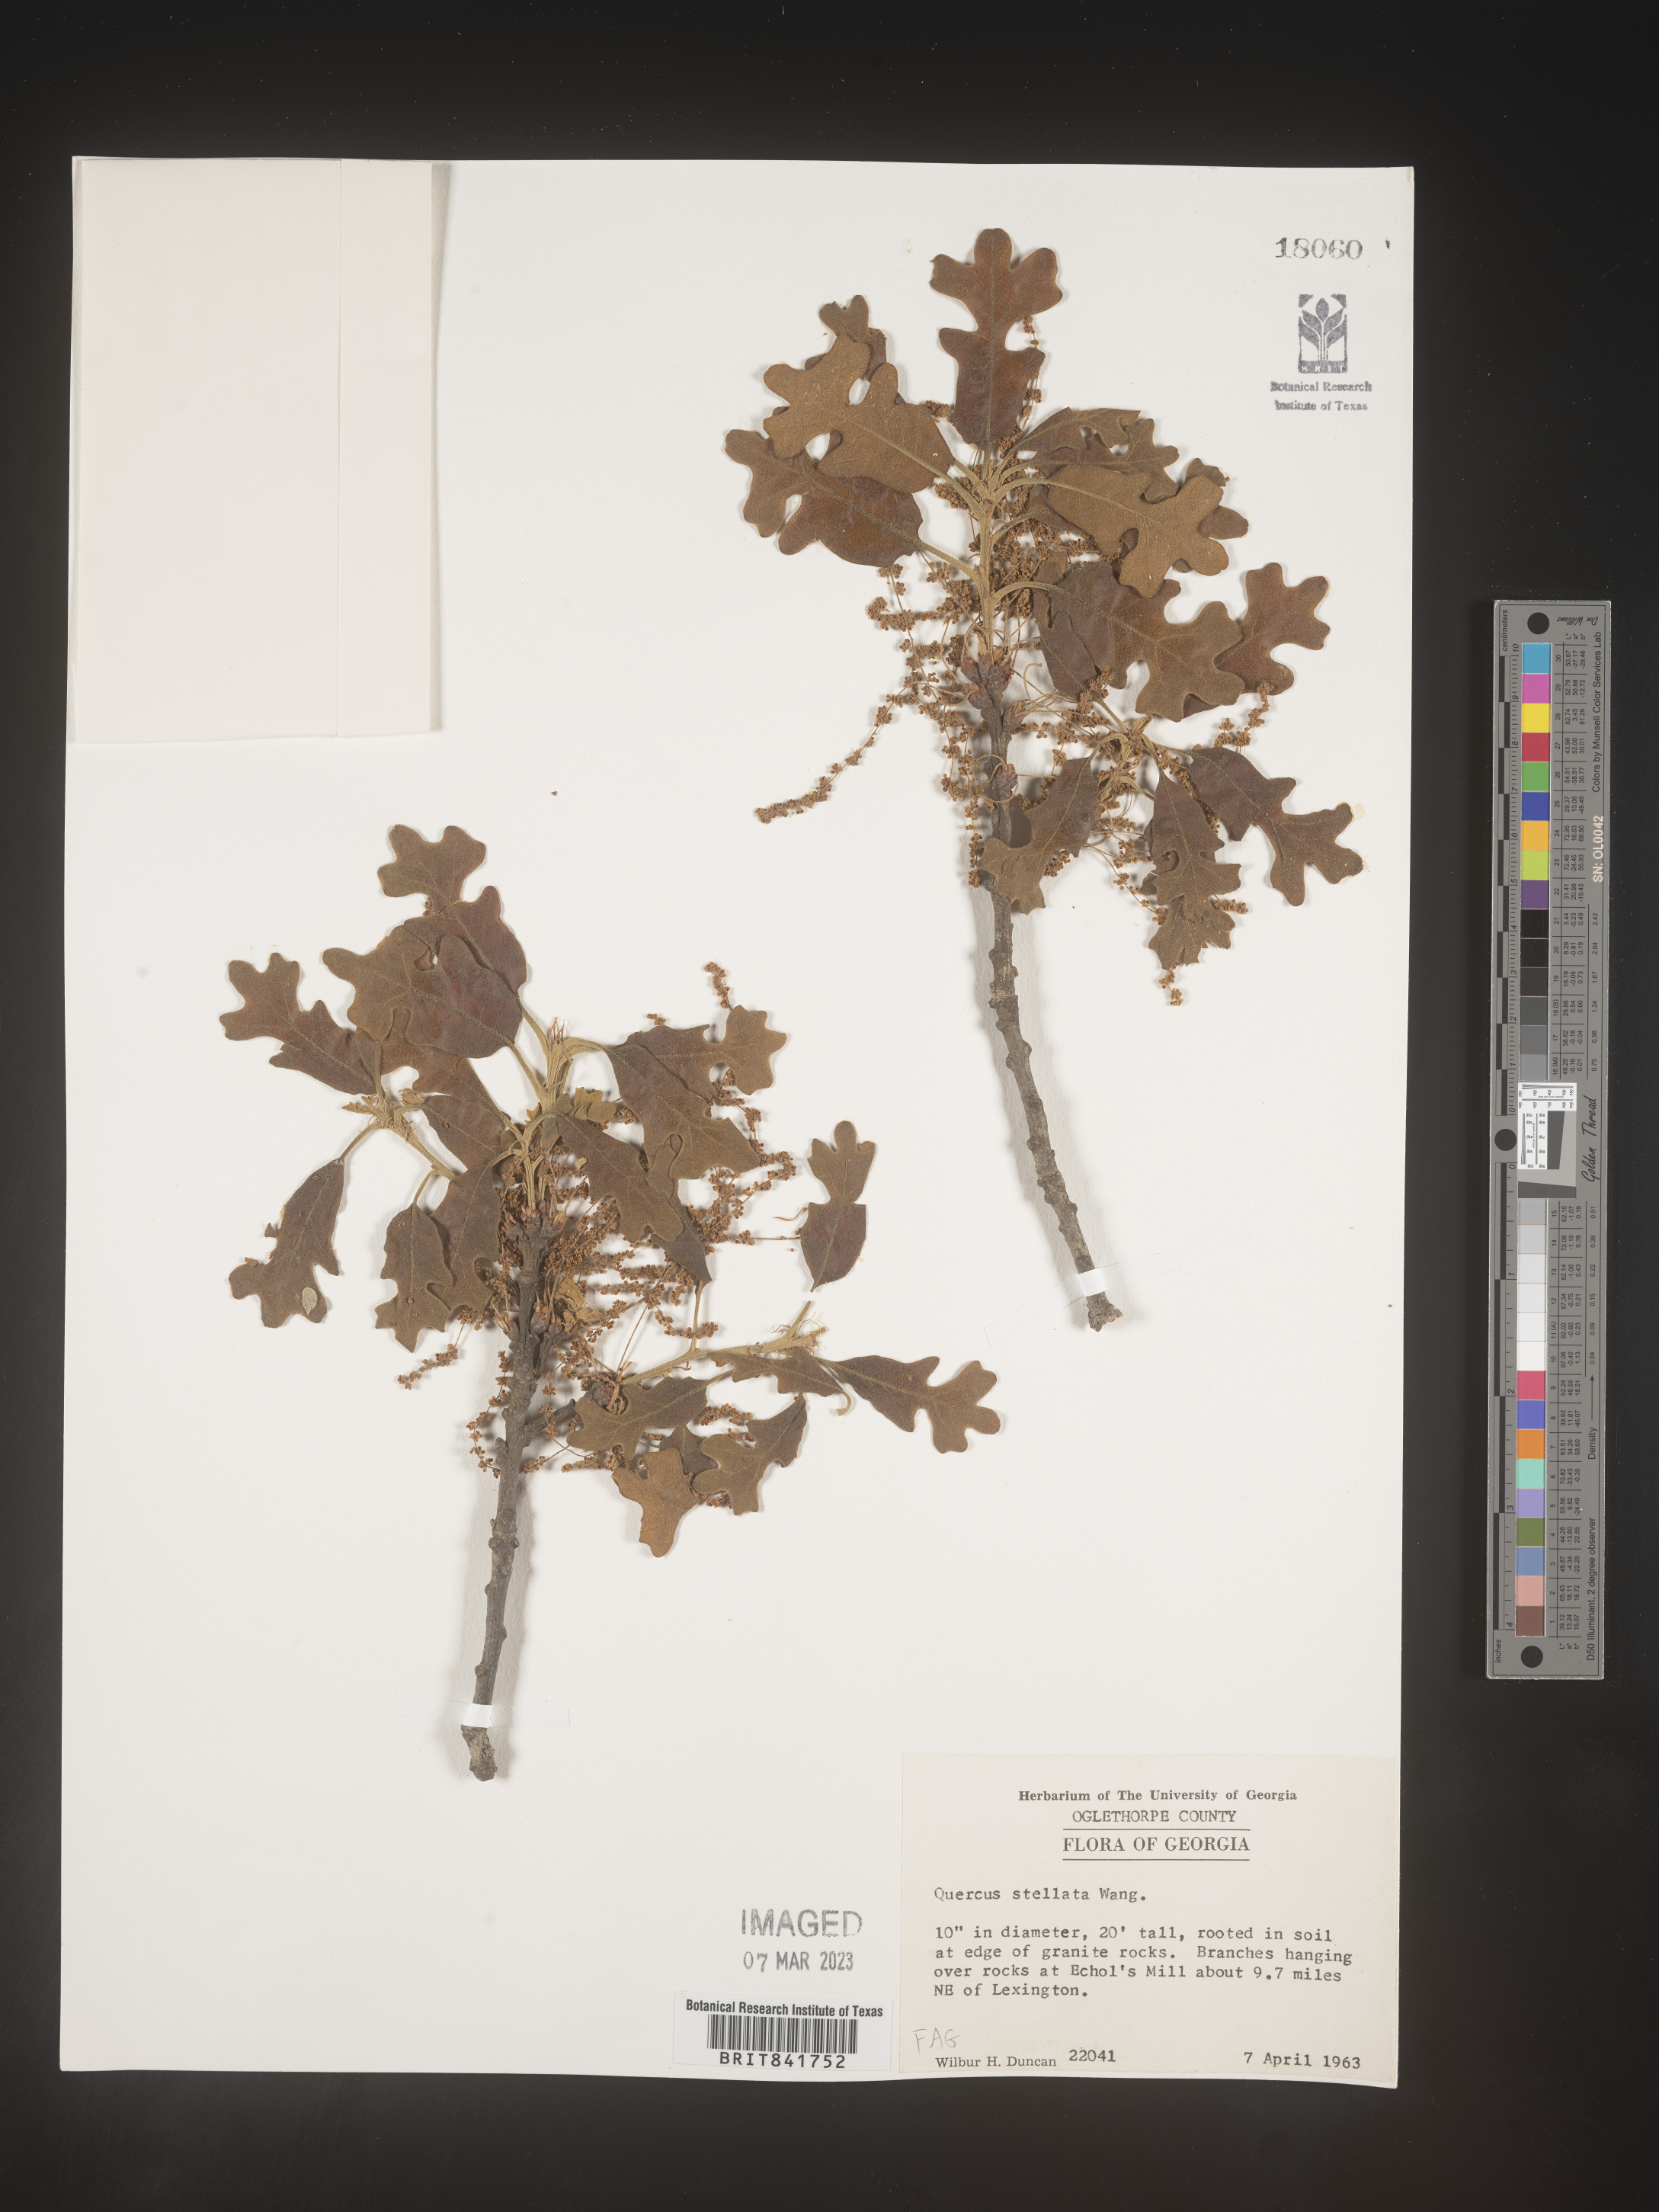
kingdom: Plantae
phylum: Tracheophyta
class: Magnoliopsida
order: Fagales
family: Fagaceae
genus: Quercus
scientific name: Quercus stellata
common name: Post oak
